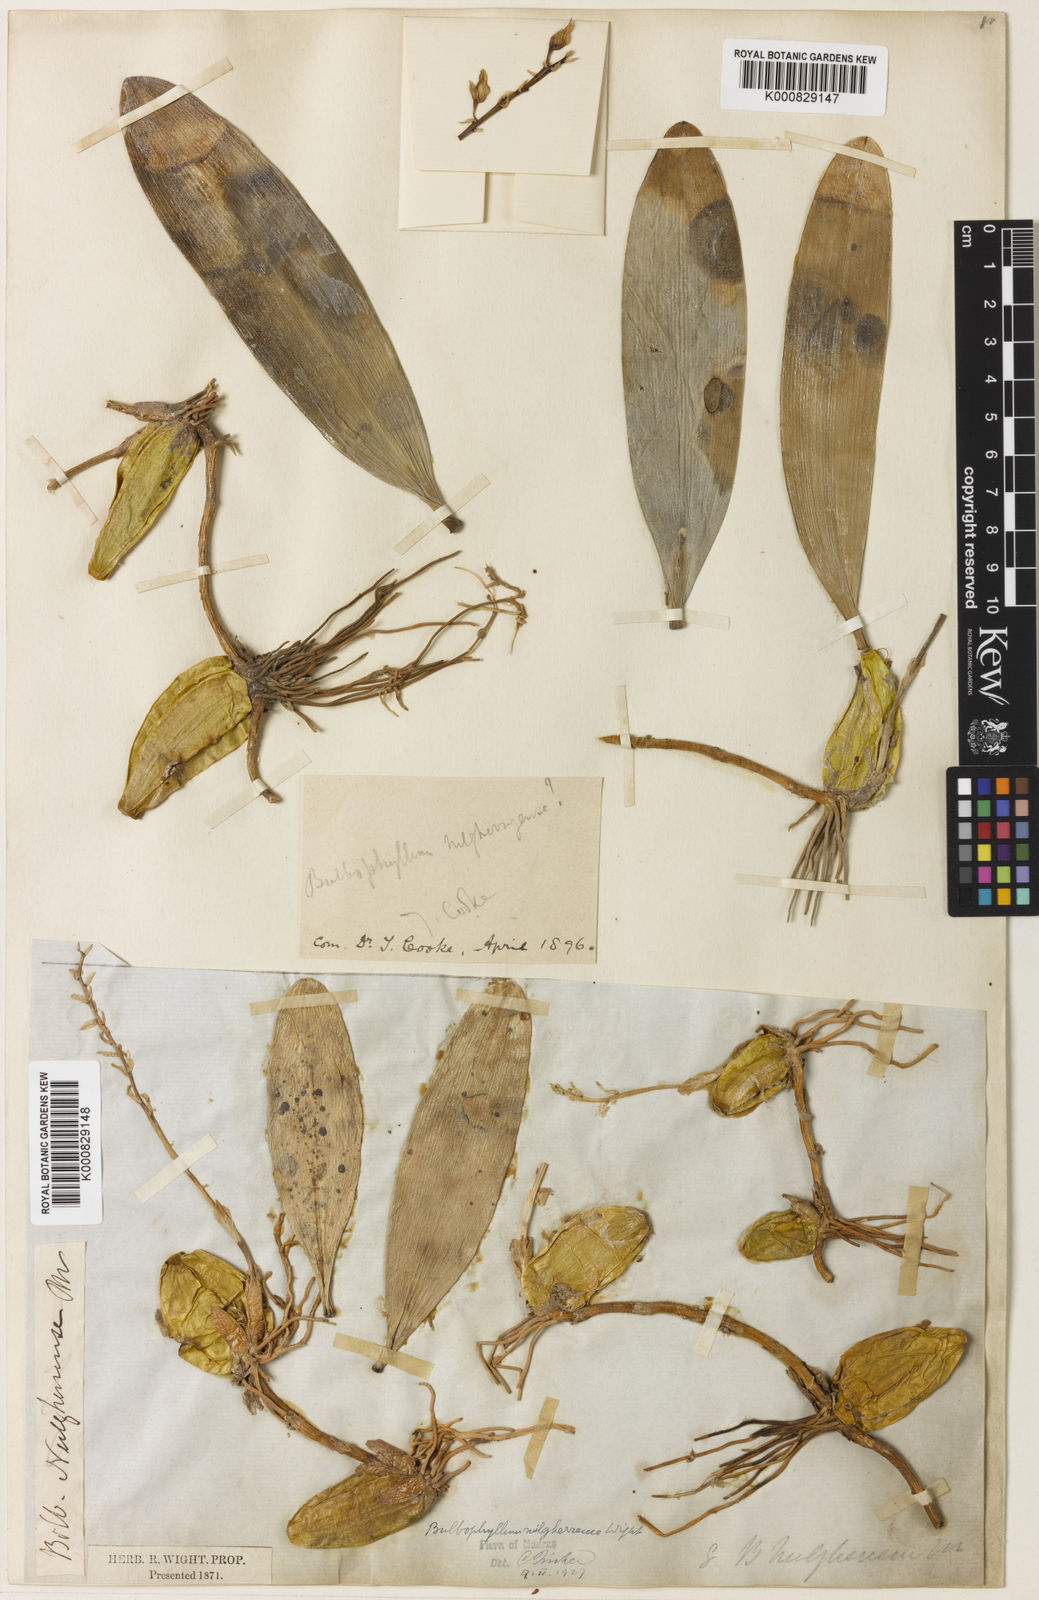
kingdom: Plantae
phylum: Tracheophyta
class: Liliopsida
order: Asparagales
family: Orchidaceae
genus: Bulbophyllum
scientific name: Bulbophyllum sterile
